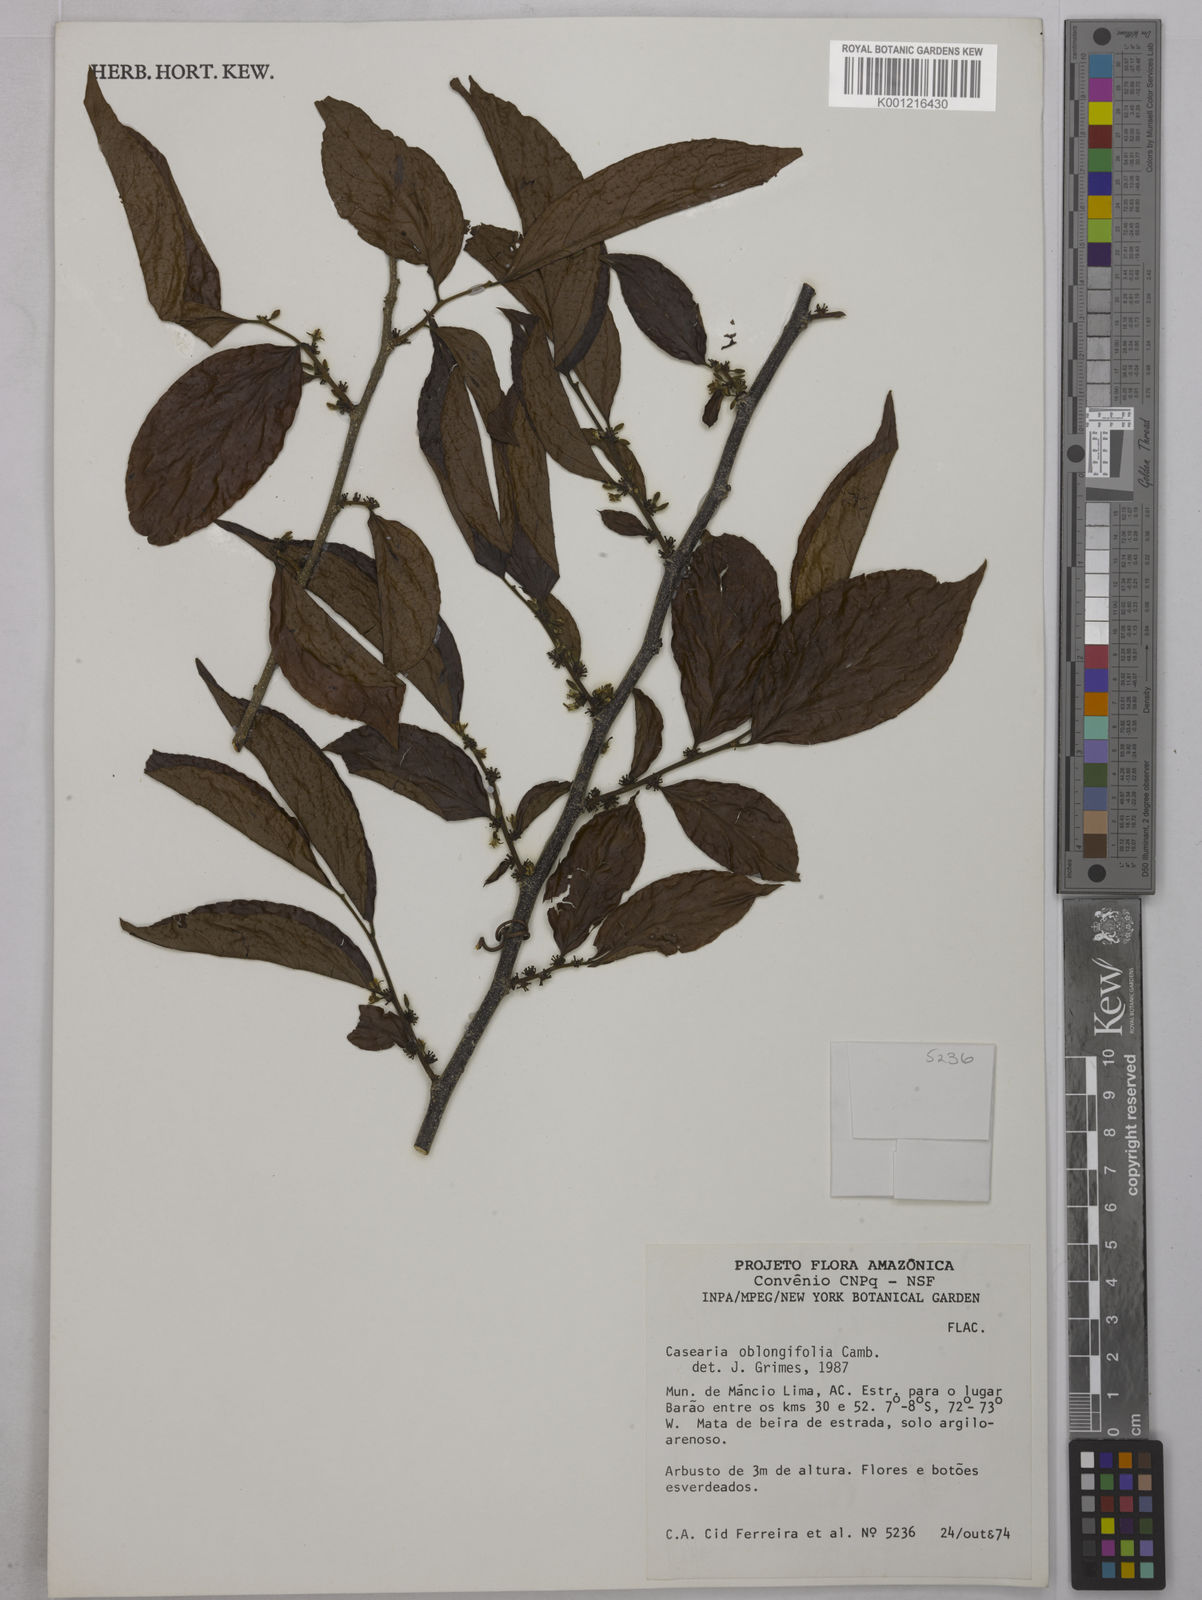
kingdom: Plantae
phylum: Tracheophyta
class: Magnoliopsida
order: Malpighiales
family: Salicaceae
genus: Casearia
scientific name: Casearia oblongifolia
